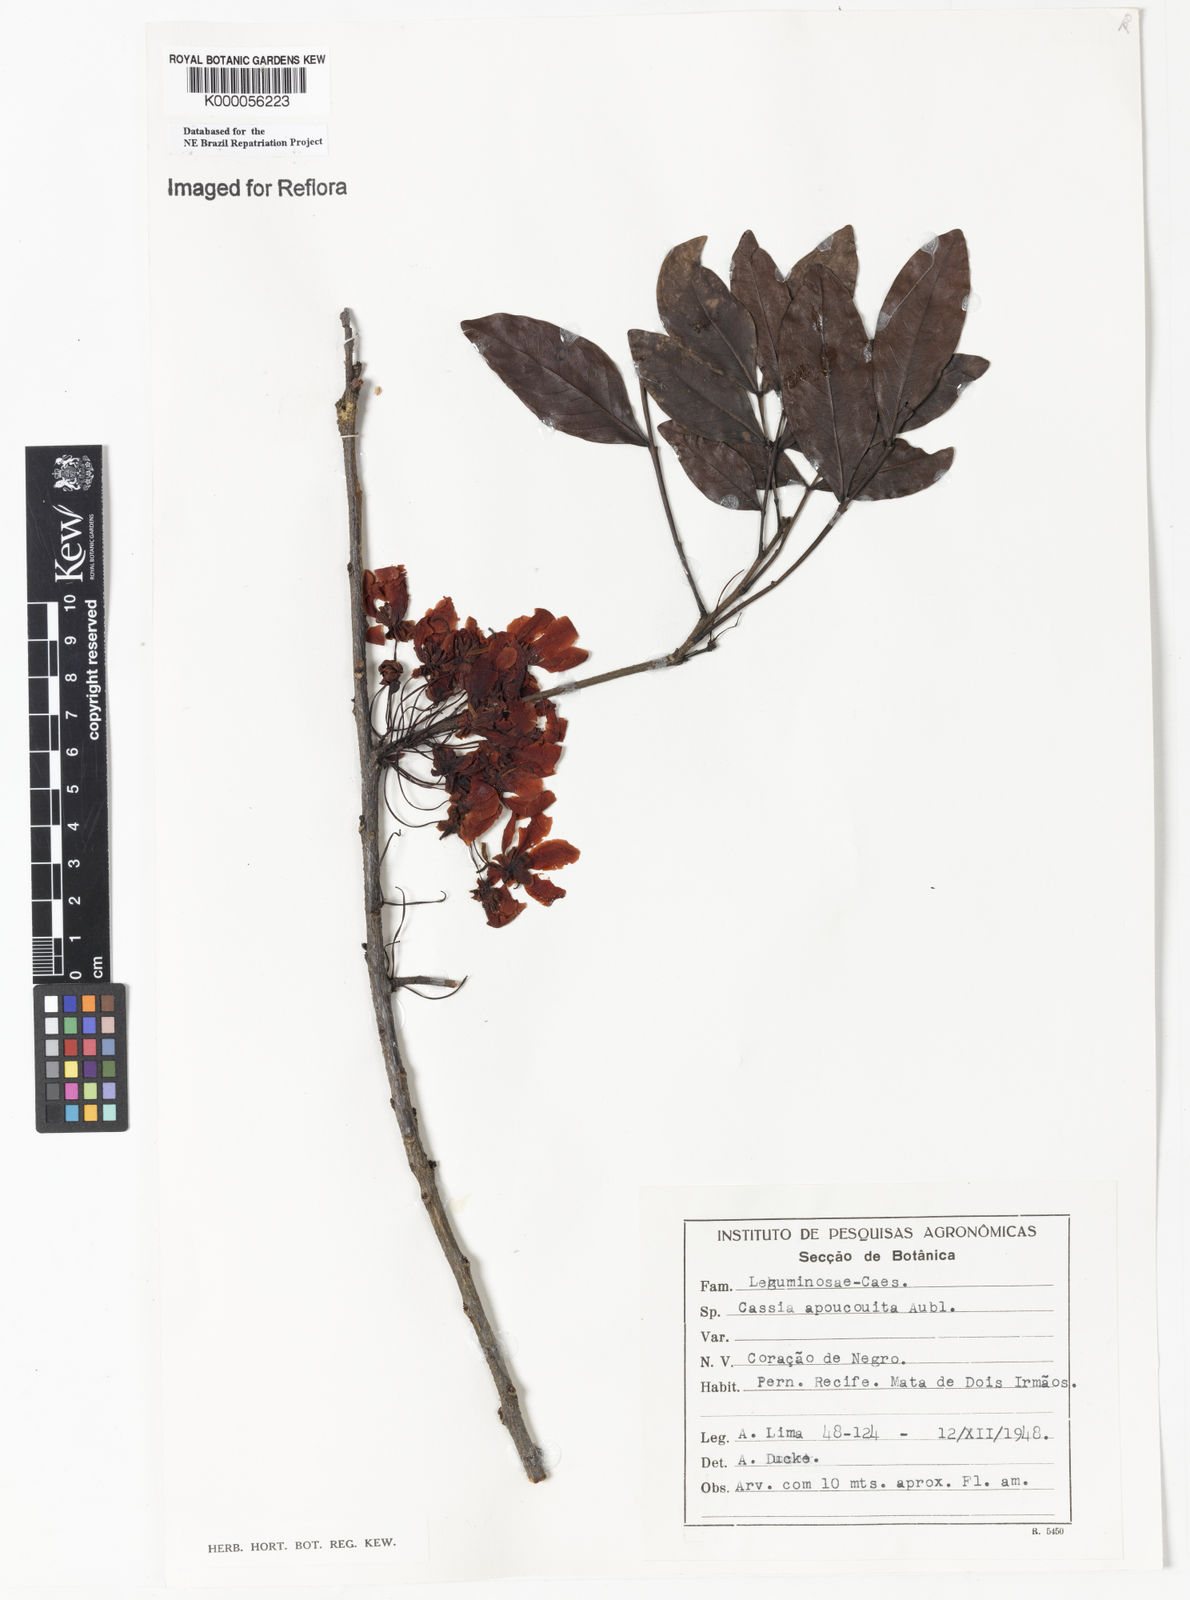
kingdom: Plantae
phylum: Tracheophyta
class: Magnoliopsida
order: Fabales
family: Fabaceae
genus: Chamaecrista
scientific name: Chamaecrista apoucouita
